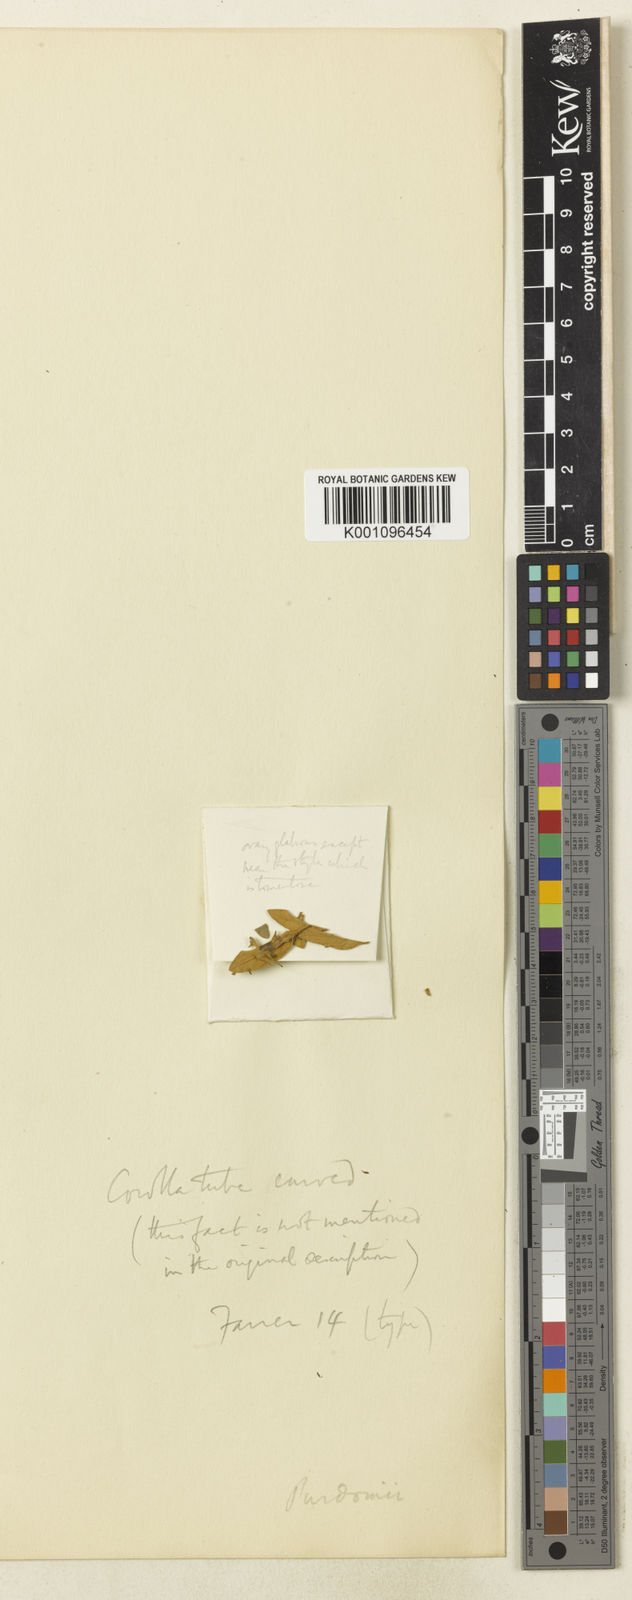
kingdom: Plantae
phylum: Tracheophyta
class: Magnoliopsida
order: Lamiales
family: Scrophulariaceae
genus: Buddleja
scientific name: Buddleja brachystachya
